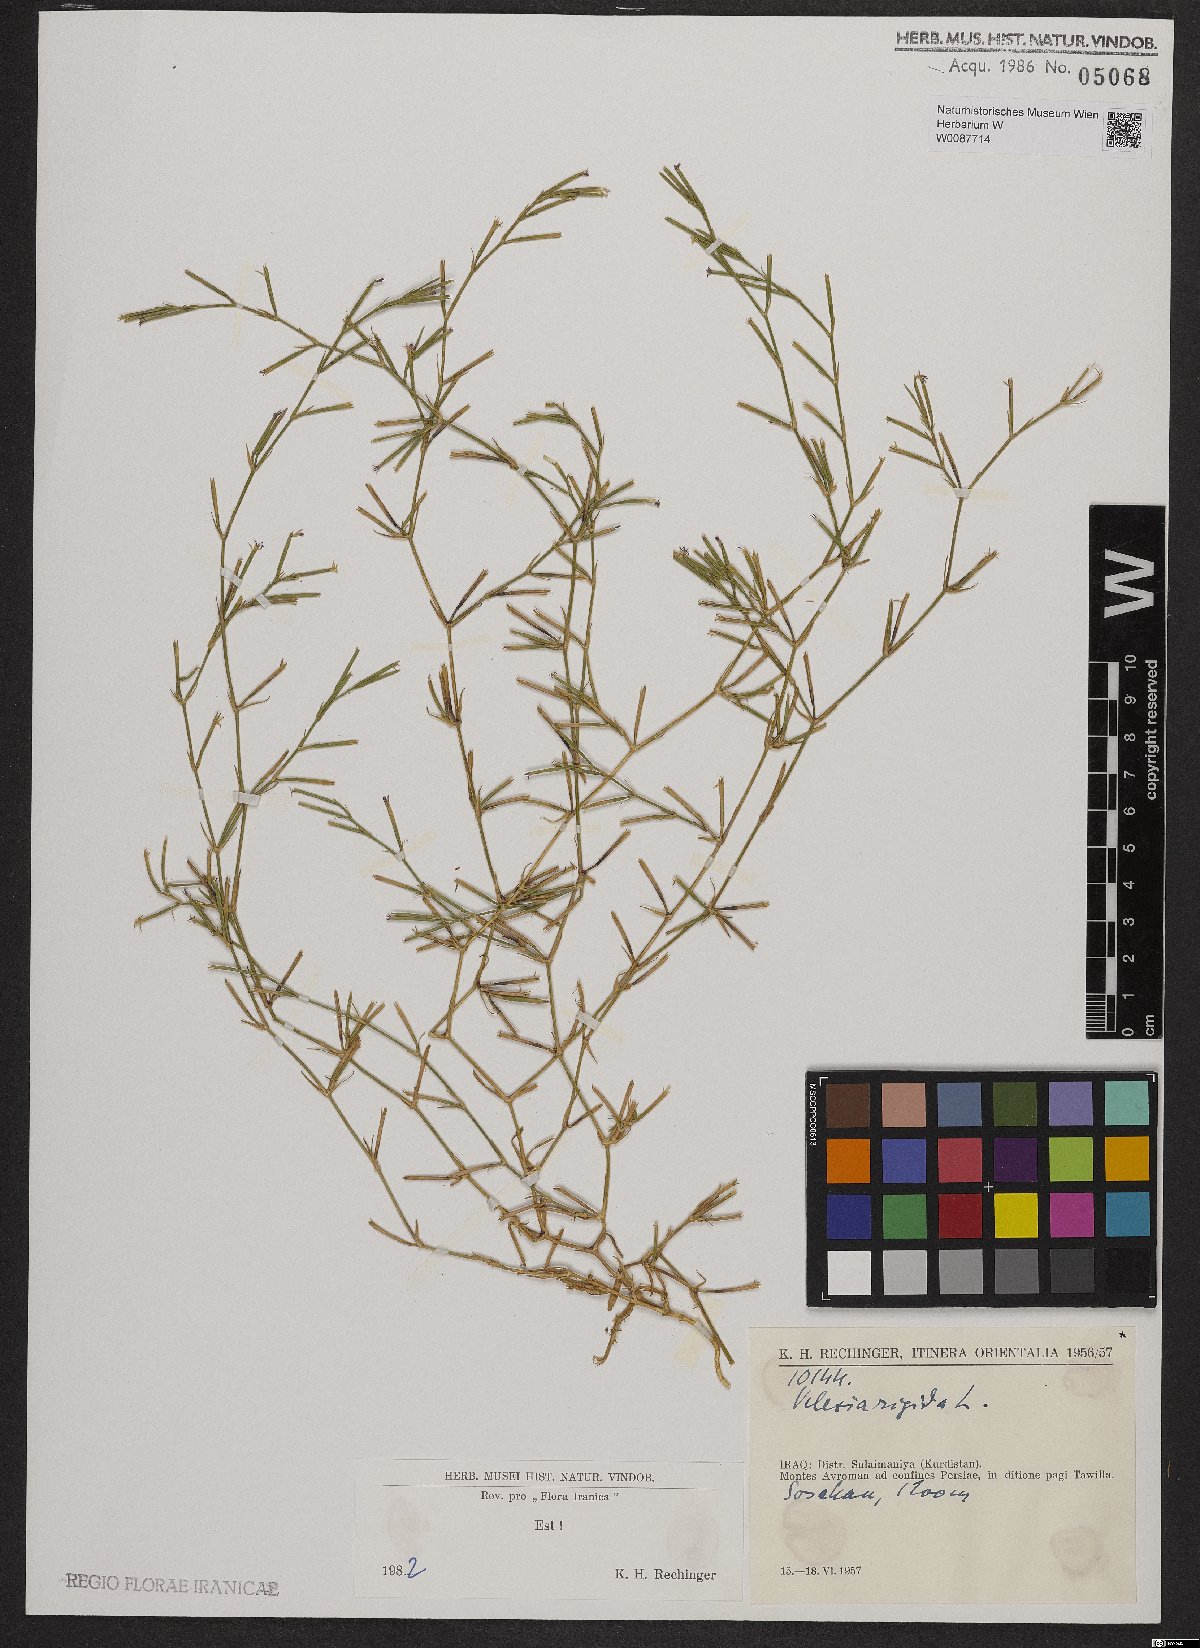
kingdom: Plantae
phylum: Tracheophyta
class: Magnoliopsida
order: Caryophyllales
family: Caryophyllaceae
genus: Dianthus
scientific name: Dianthus nudiflorus
